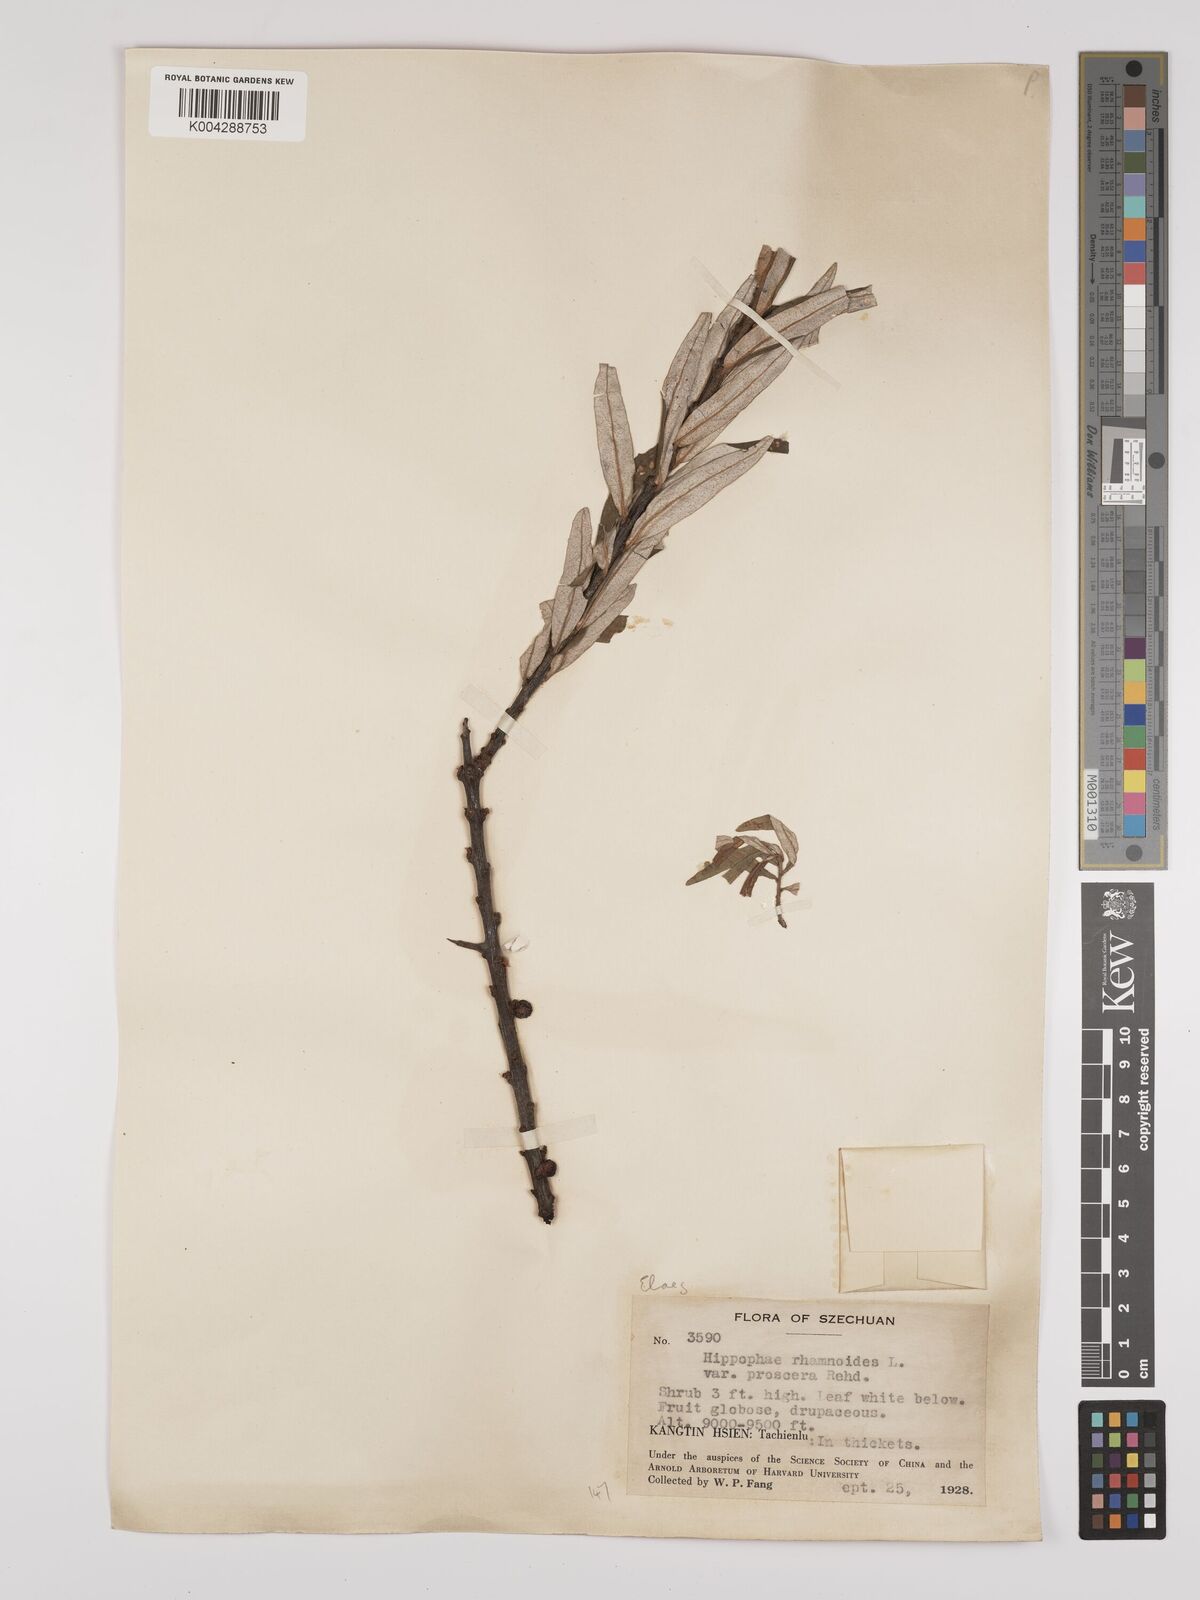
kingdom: Plantae
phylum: Tracheophyta
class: Magnoliopsida
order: Rosales
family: Elaeagnaceae
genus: Hippophae
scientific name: Hippophae rhamnoides
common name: Sea-buckthorn
